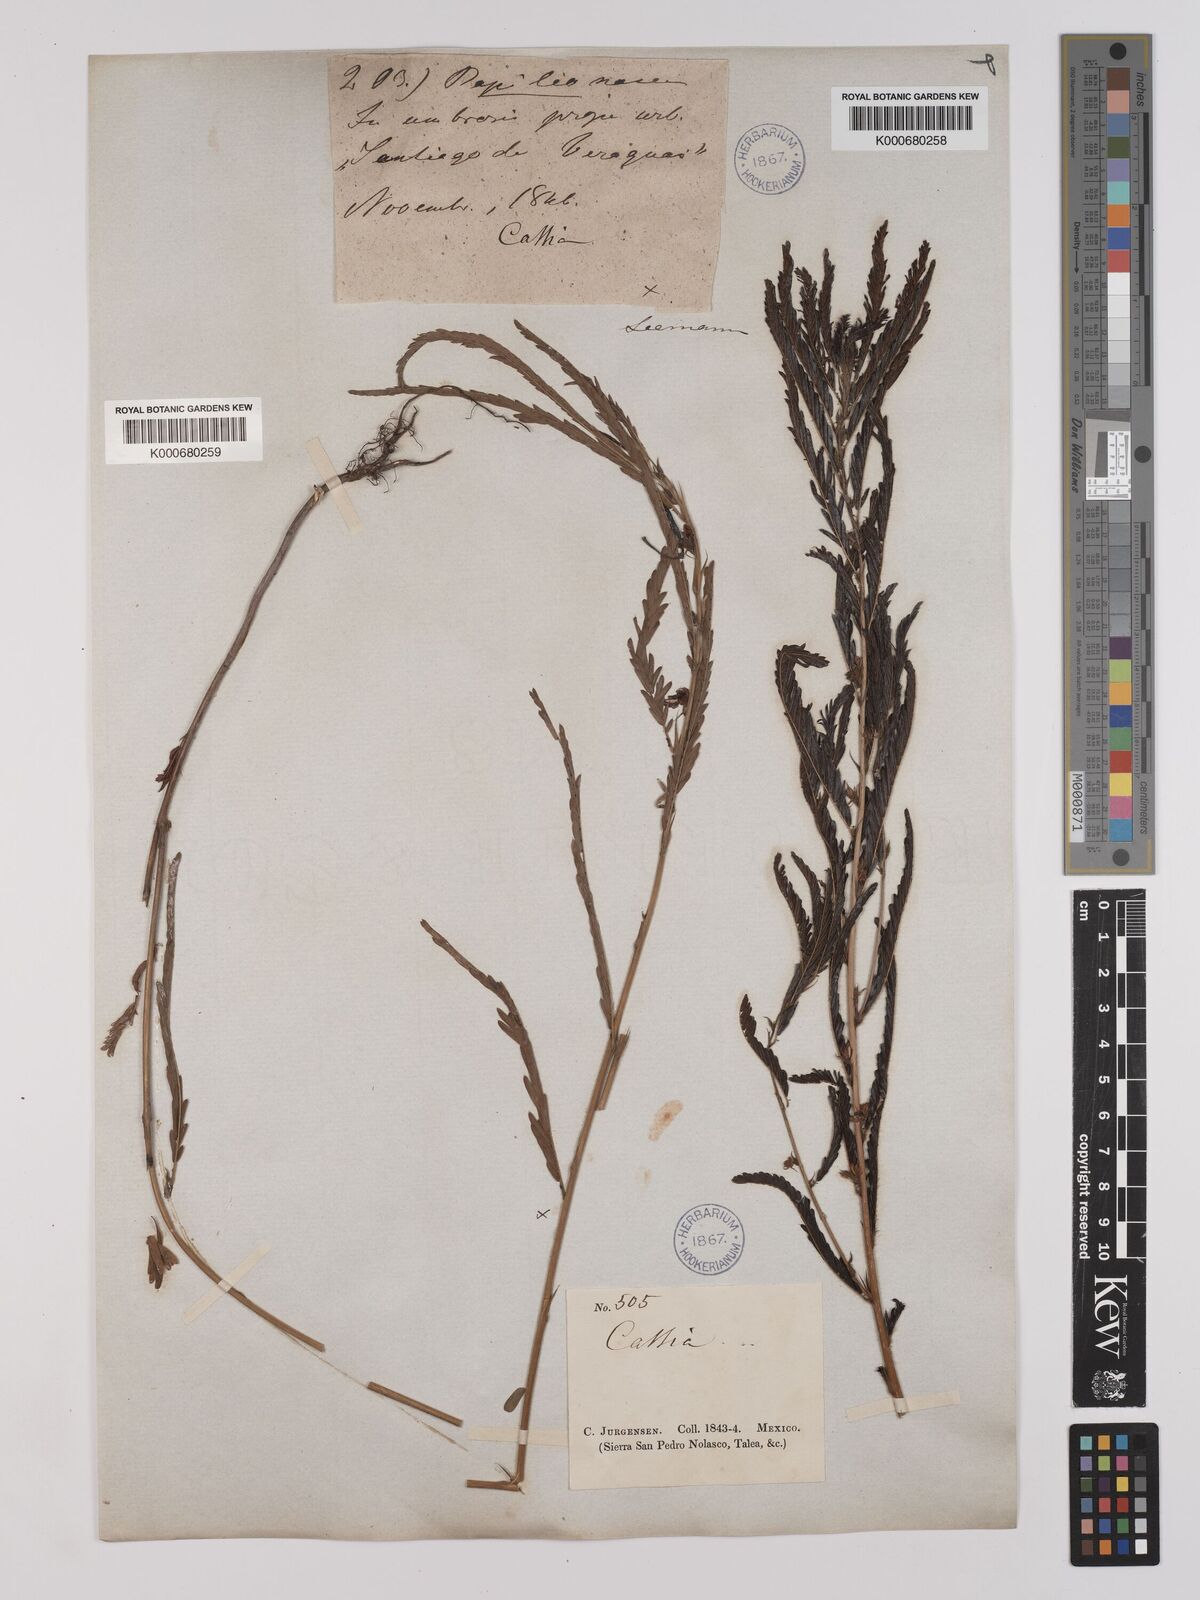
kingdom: Plantae
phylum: Tracheophyta
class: Magnoliopsida
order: Fabales
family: Fabaceae
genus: Chamaecrista
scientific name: Chamaecrista rufa
